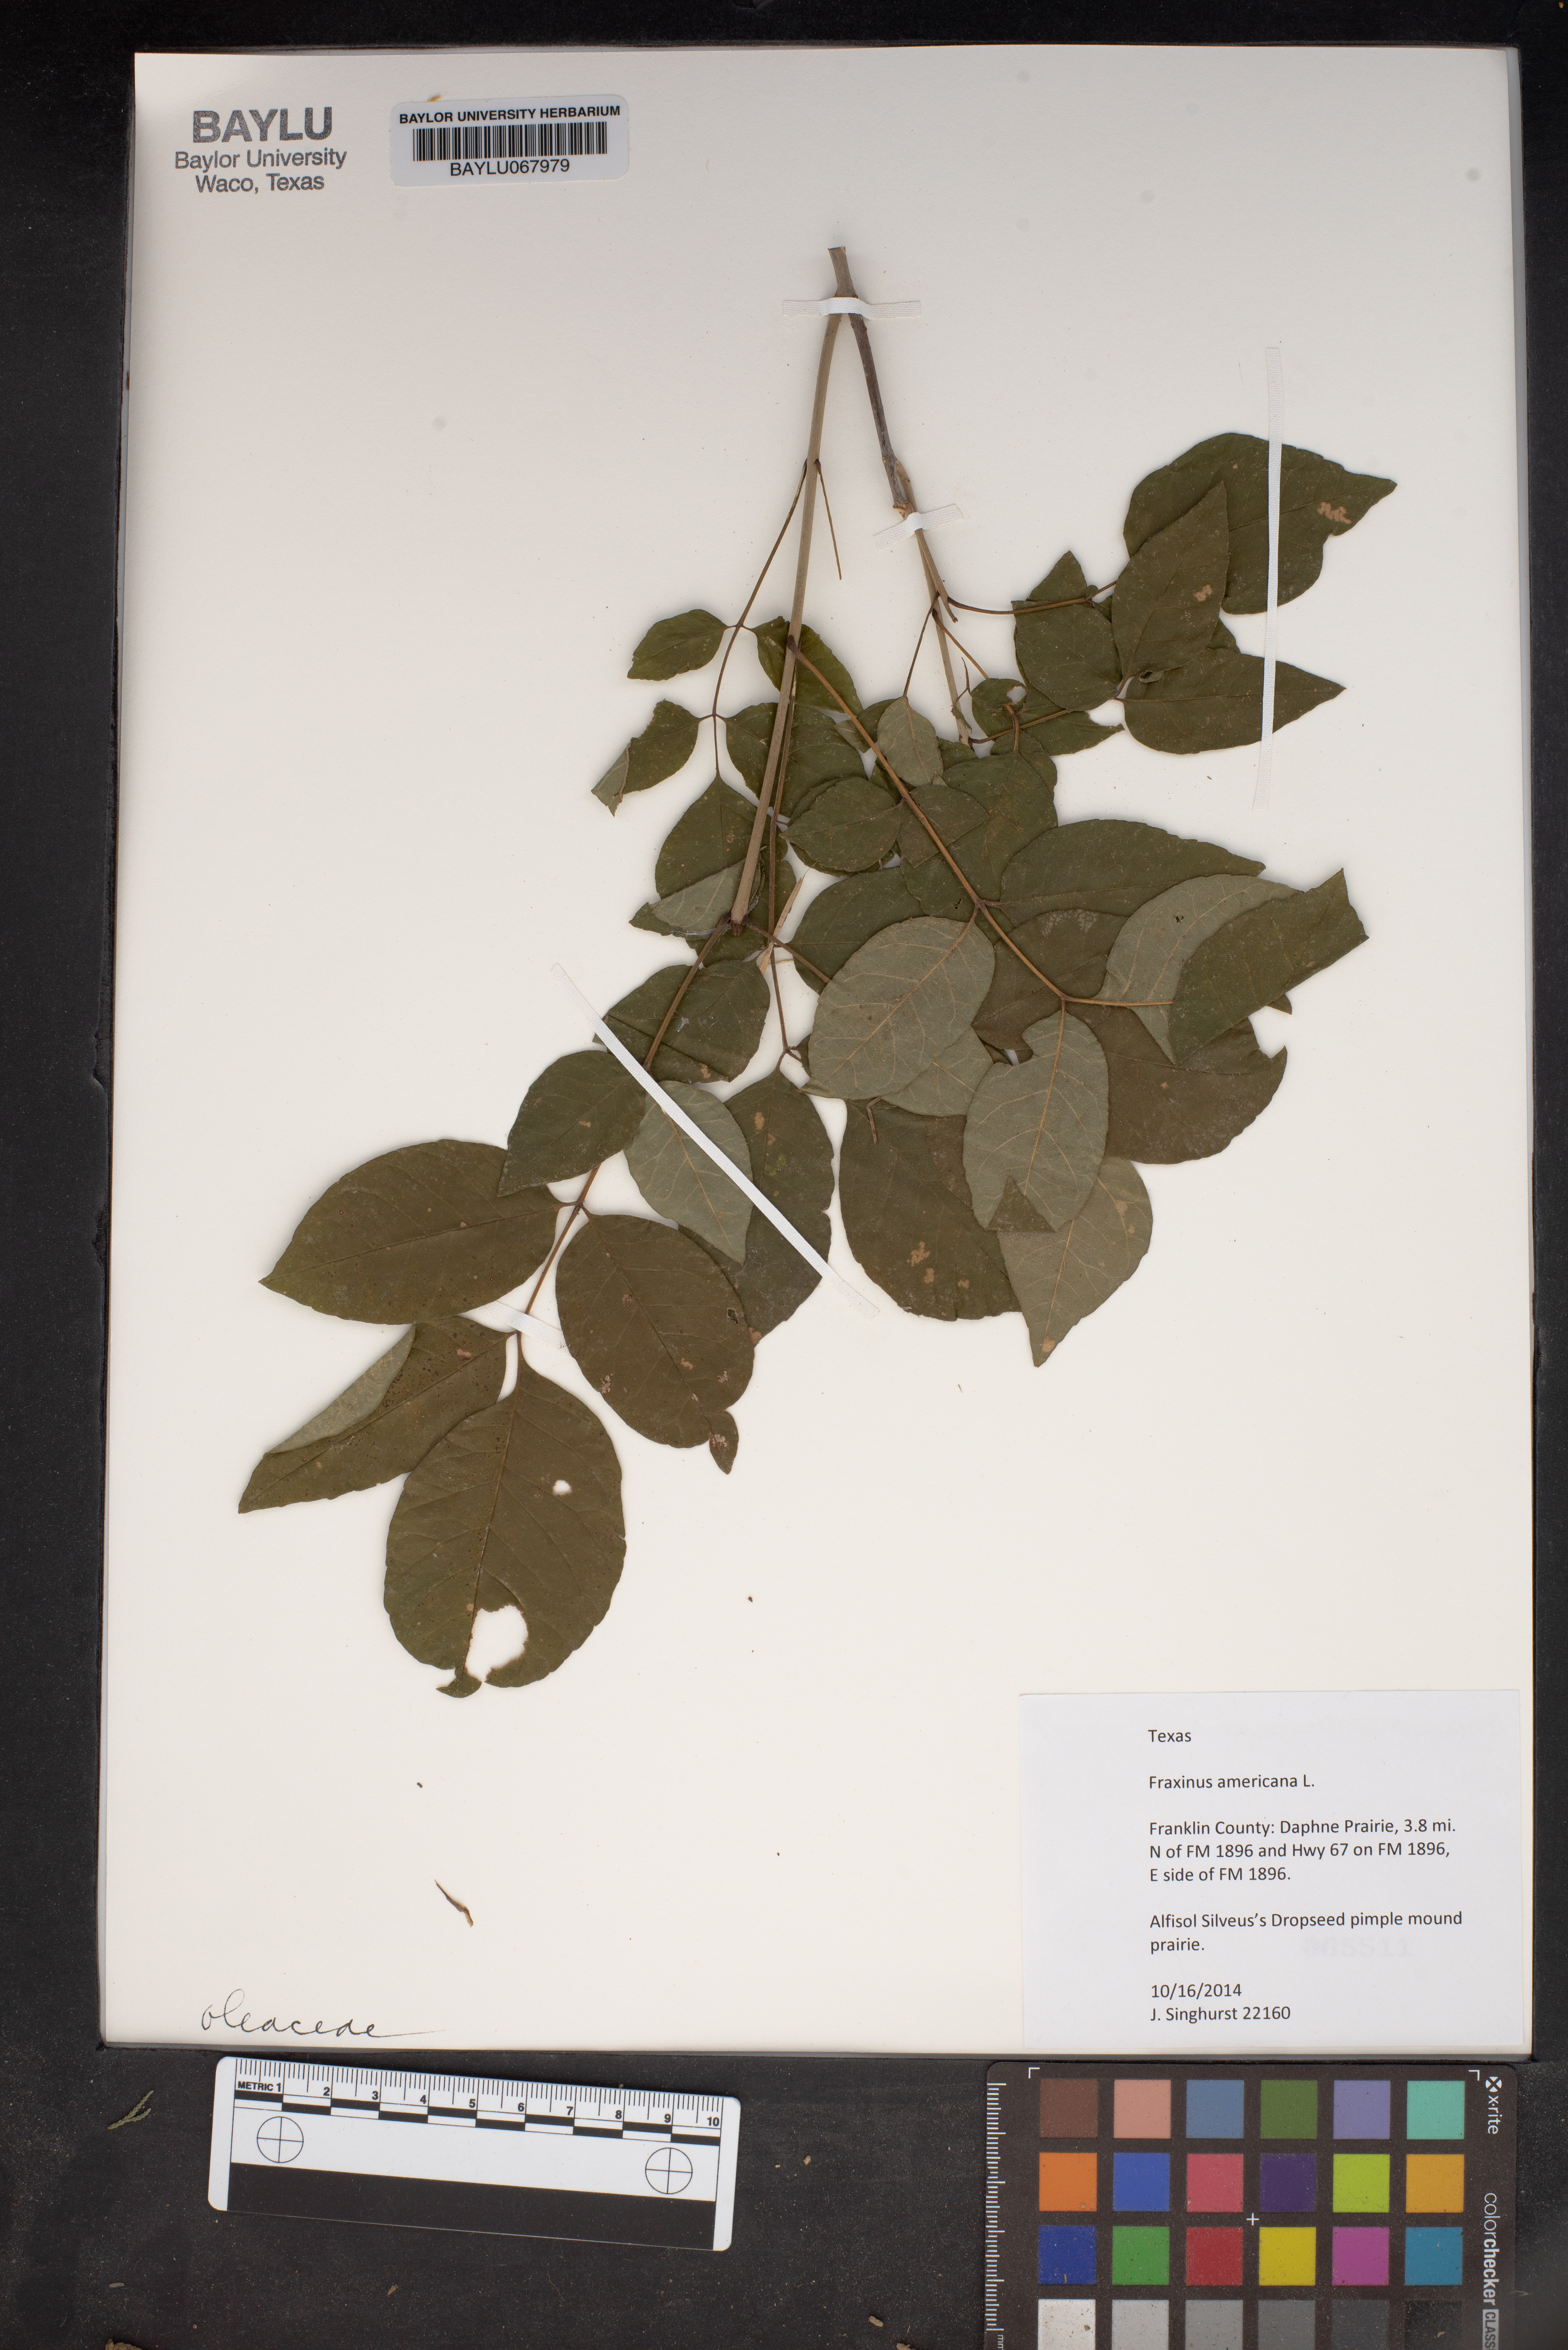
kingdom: Plantae
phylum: Tracheophyta
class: Magnoliopsida
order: Lamiales
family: Oleaceae
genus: Fraxinus
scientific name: Fraxinus americana
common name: White ash
